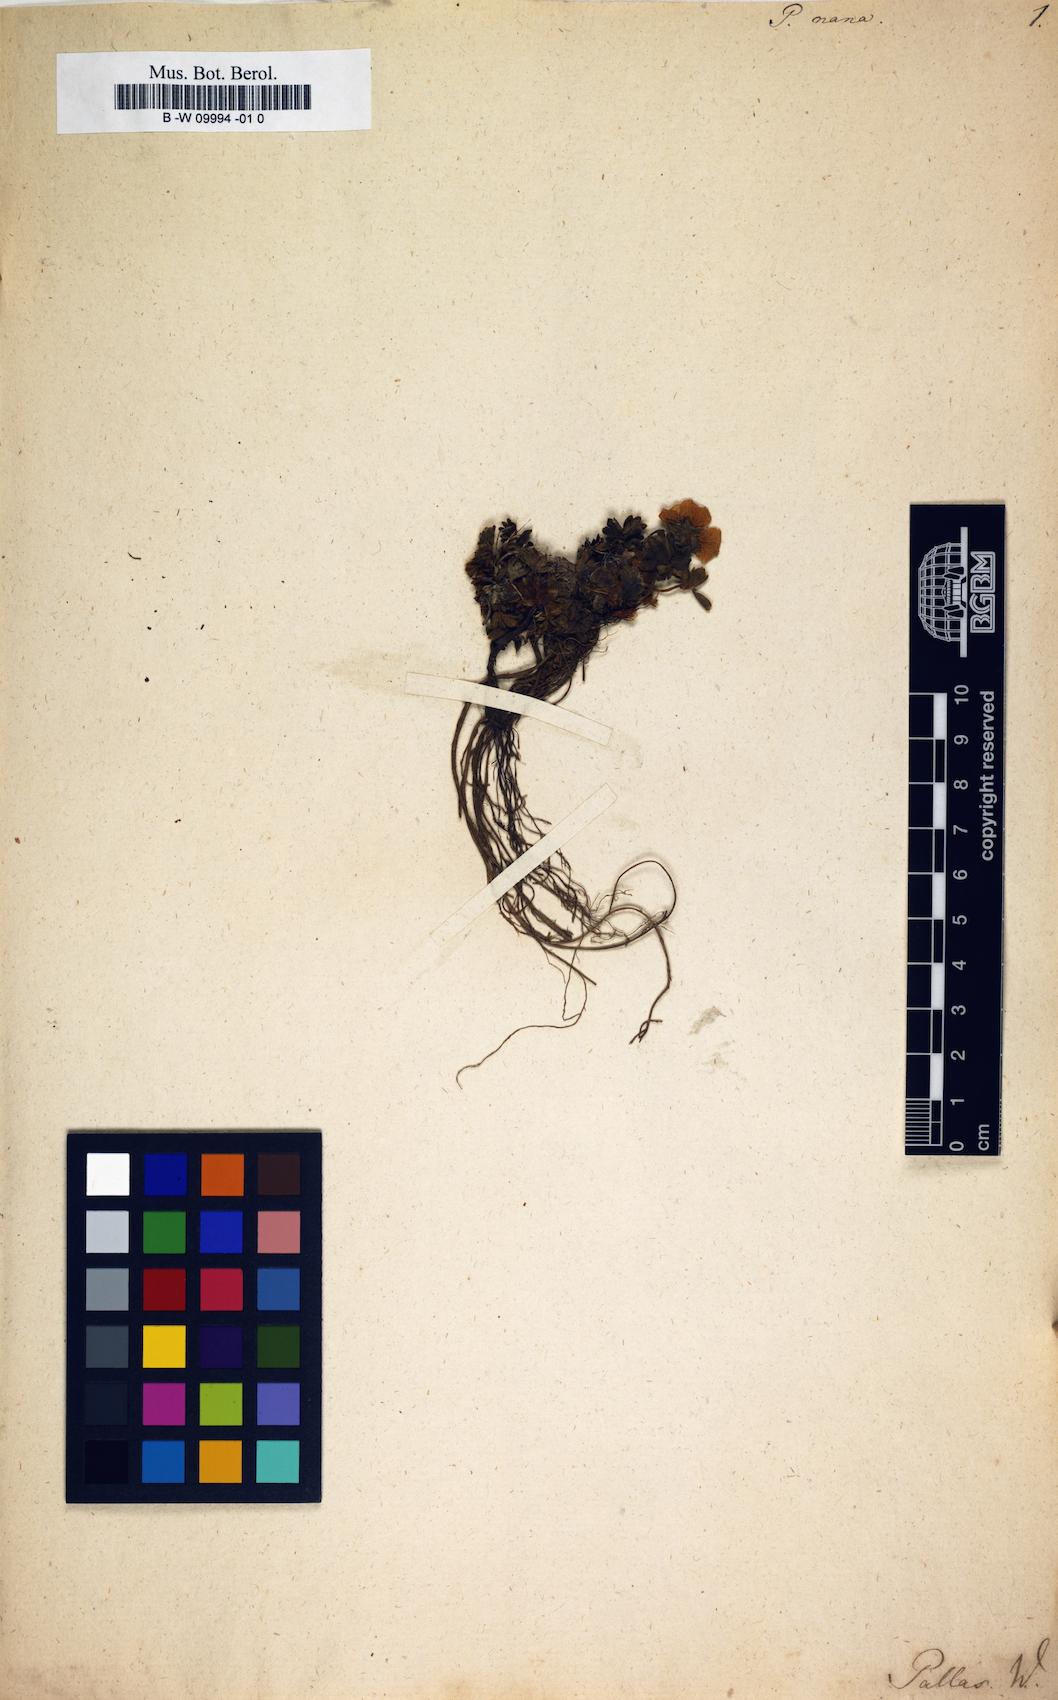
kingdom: Plantae
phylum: Tracheophyta
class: Magnoliopsida
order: Rosales
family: Rosaceae
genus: Potentilla
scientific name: Potentilla nana
